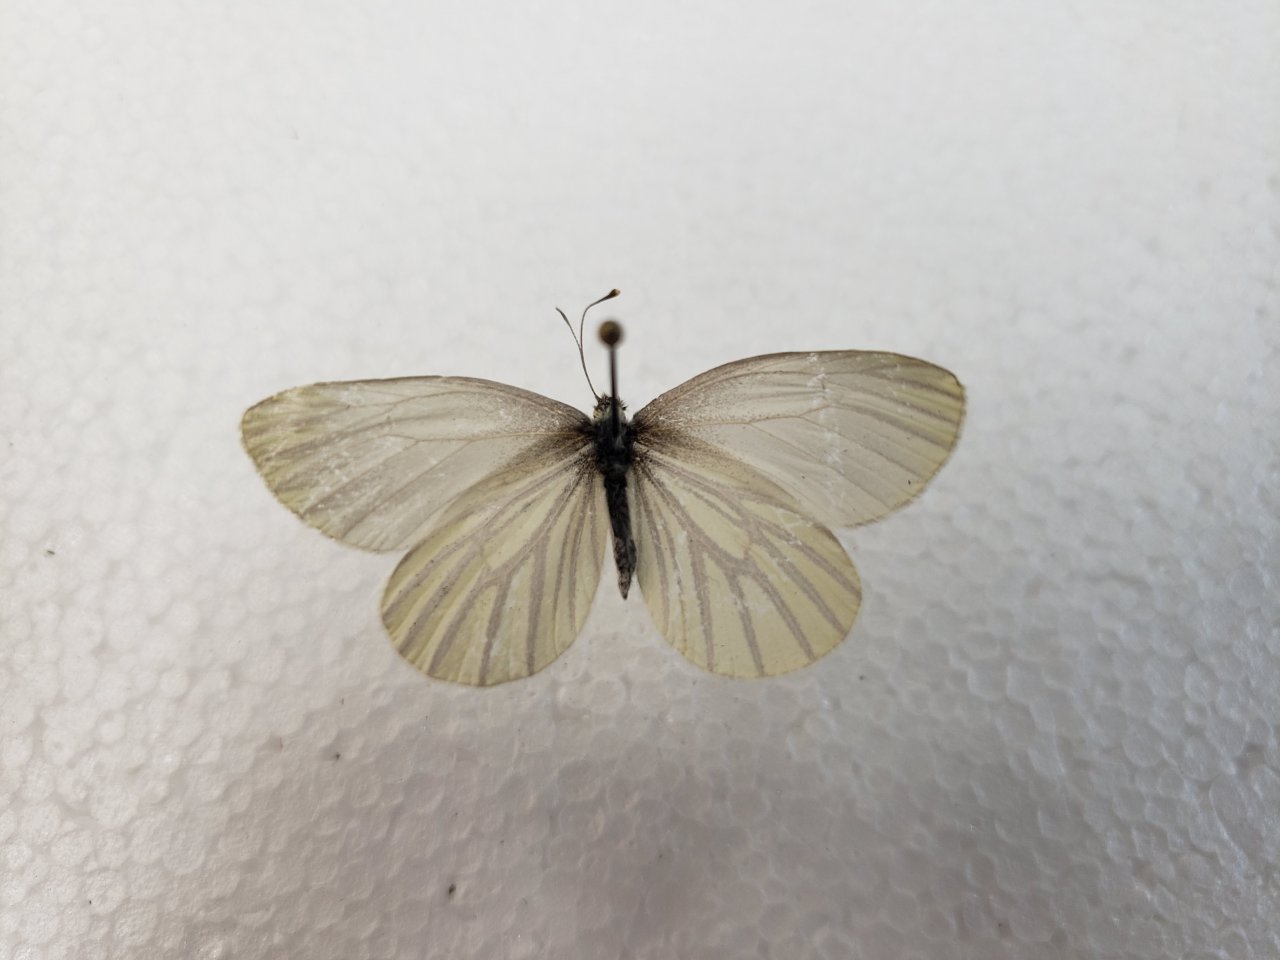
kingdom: Animalia
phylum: Arthropoda
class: Insecta
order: Lepidoptera
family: Pieridae
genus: Pieris
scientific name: Pieris oleracea
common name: Mustard White
